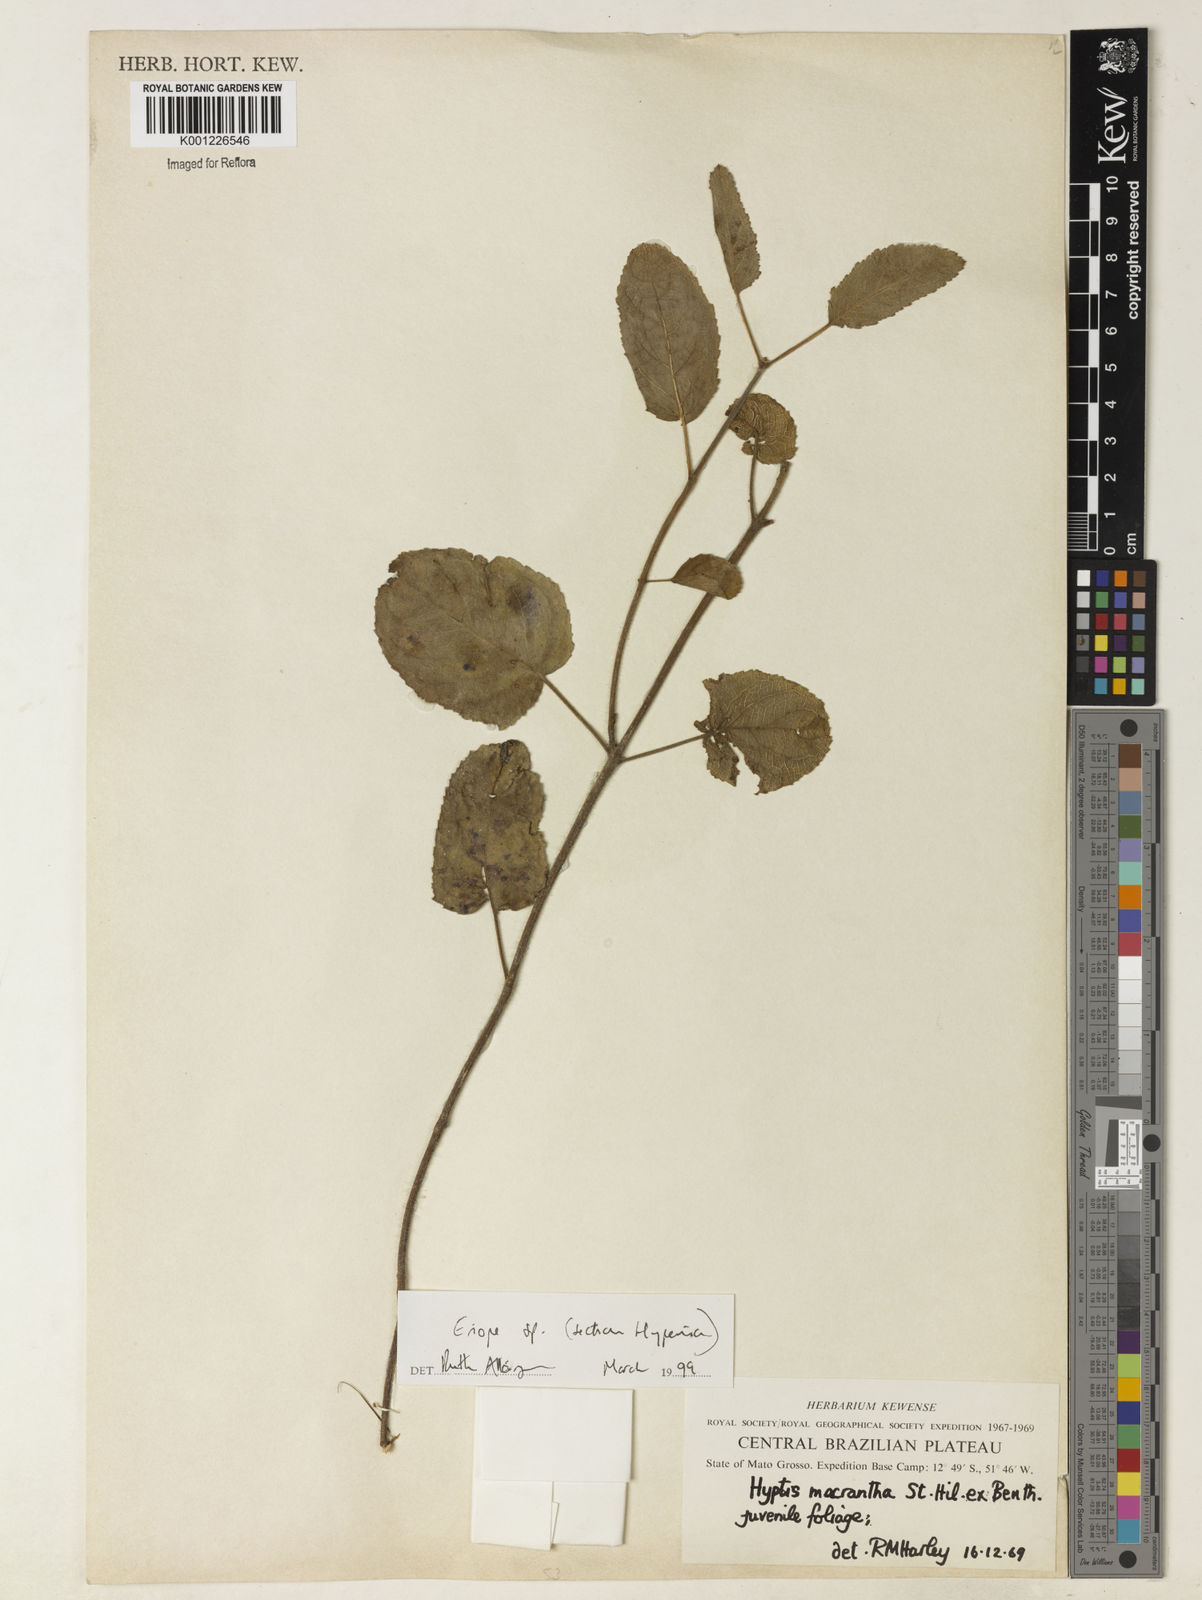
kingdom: Plantae
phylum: Tracheophyta
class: Magnoliopsida
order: Lamiales
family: Lamiaceae
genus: Hypenia
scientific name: Hypenia
